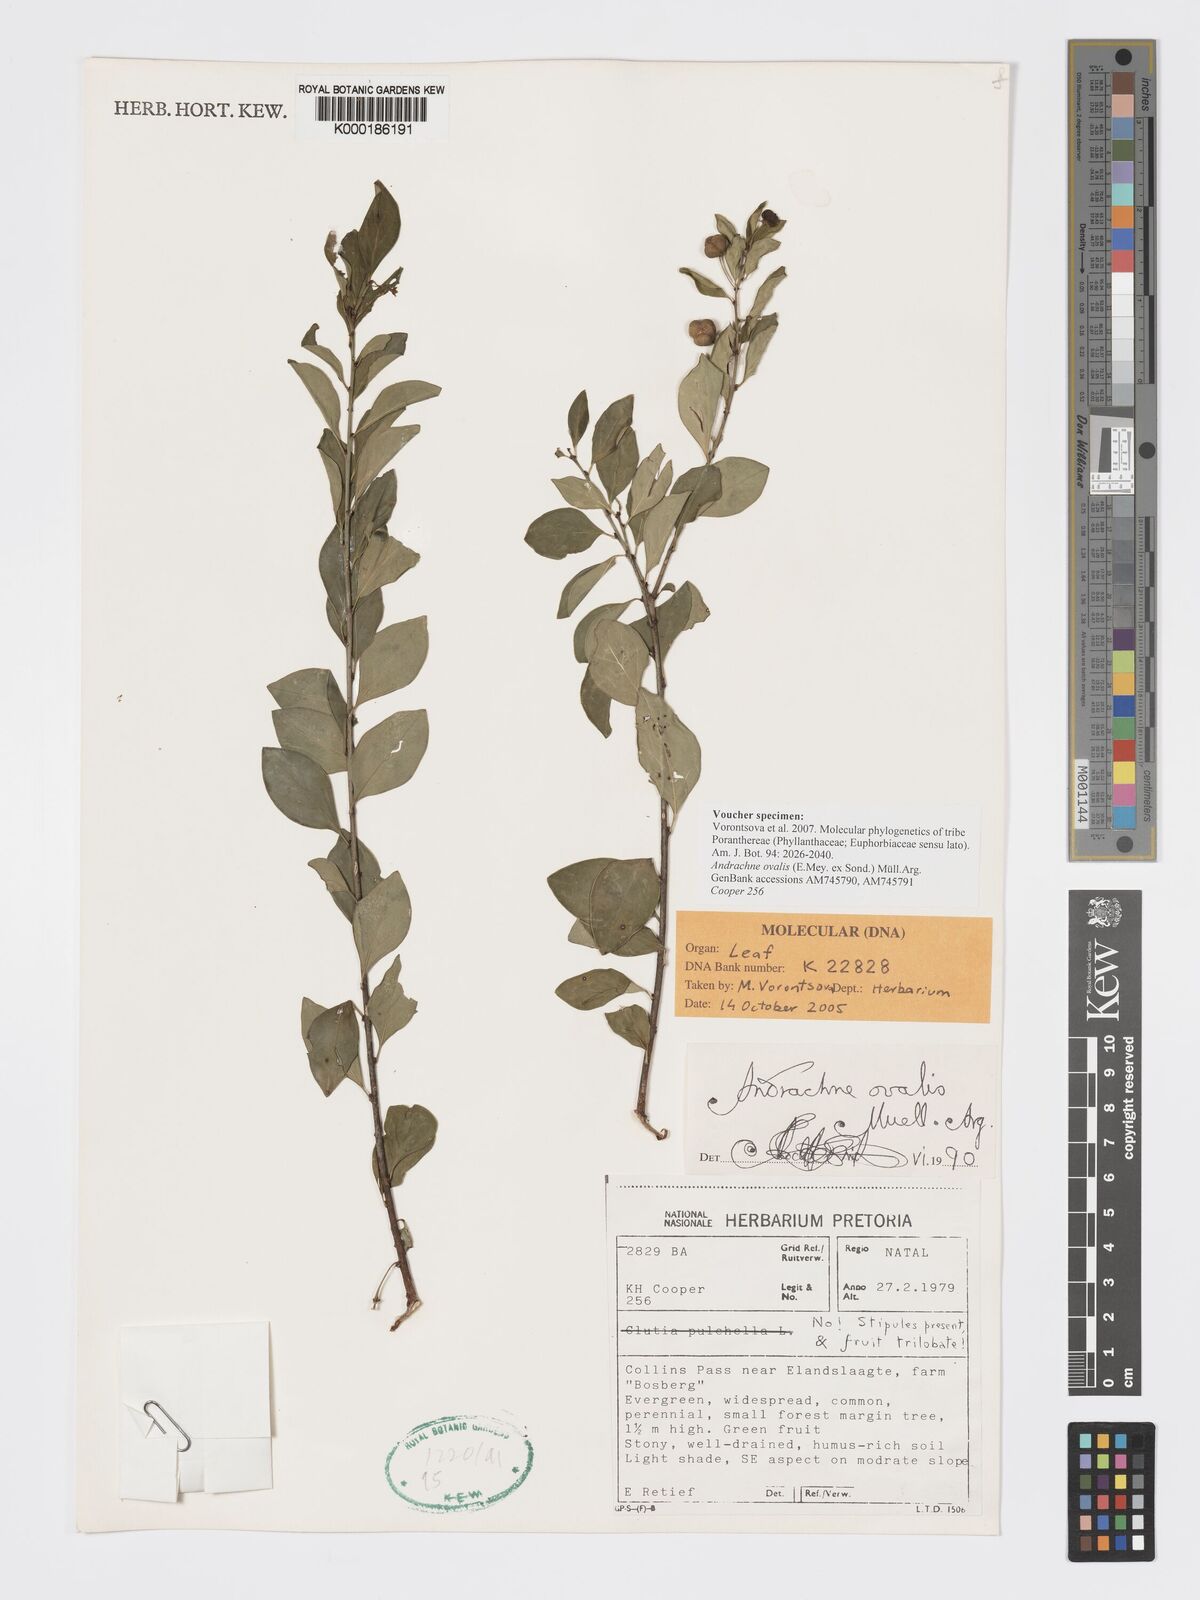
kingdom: Plantae
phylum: Tracheophyta
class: Magnoliopsida
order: Malpighiales
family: Phyllanthaceae
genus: Pseudophyllanthus
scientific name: Pseudophyllanthus ovalis
